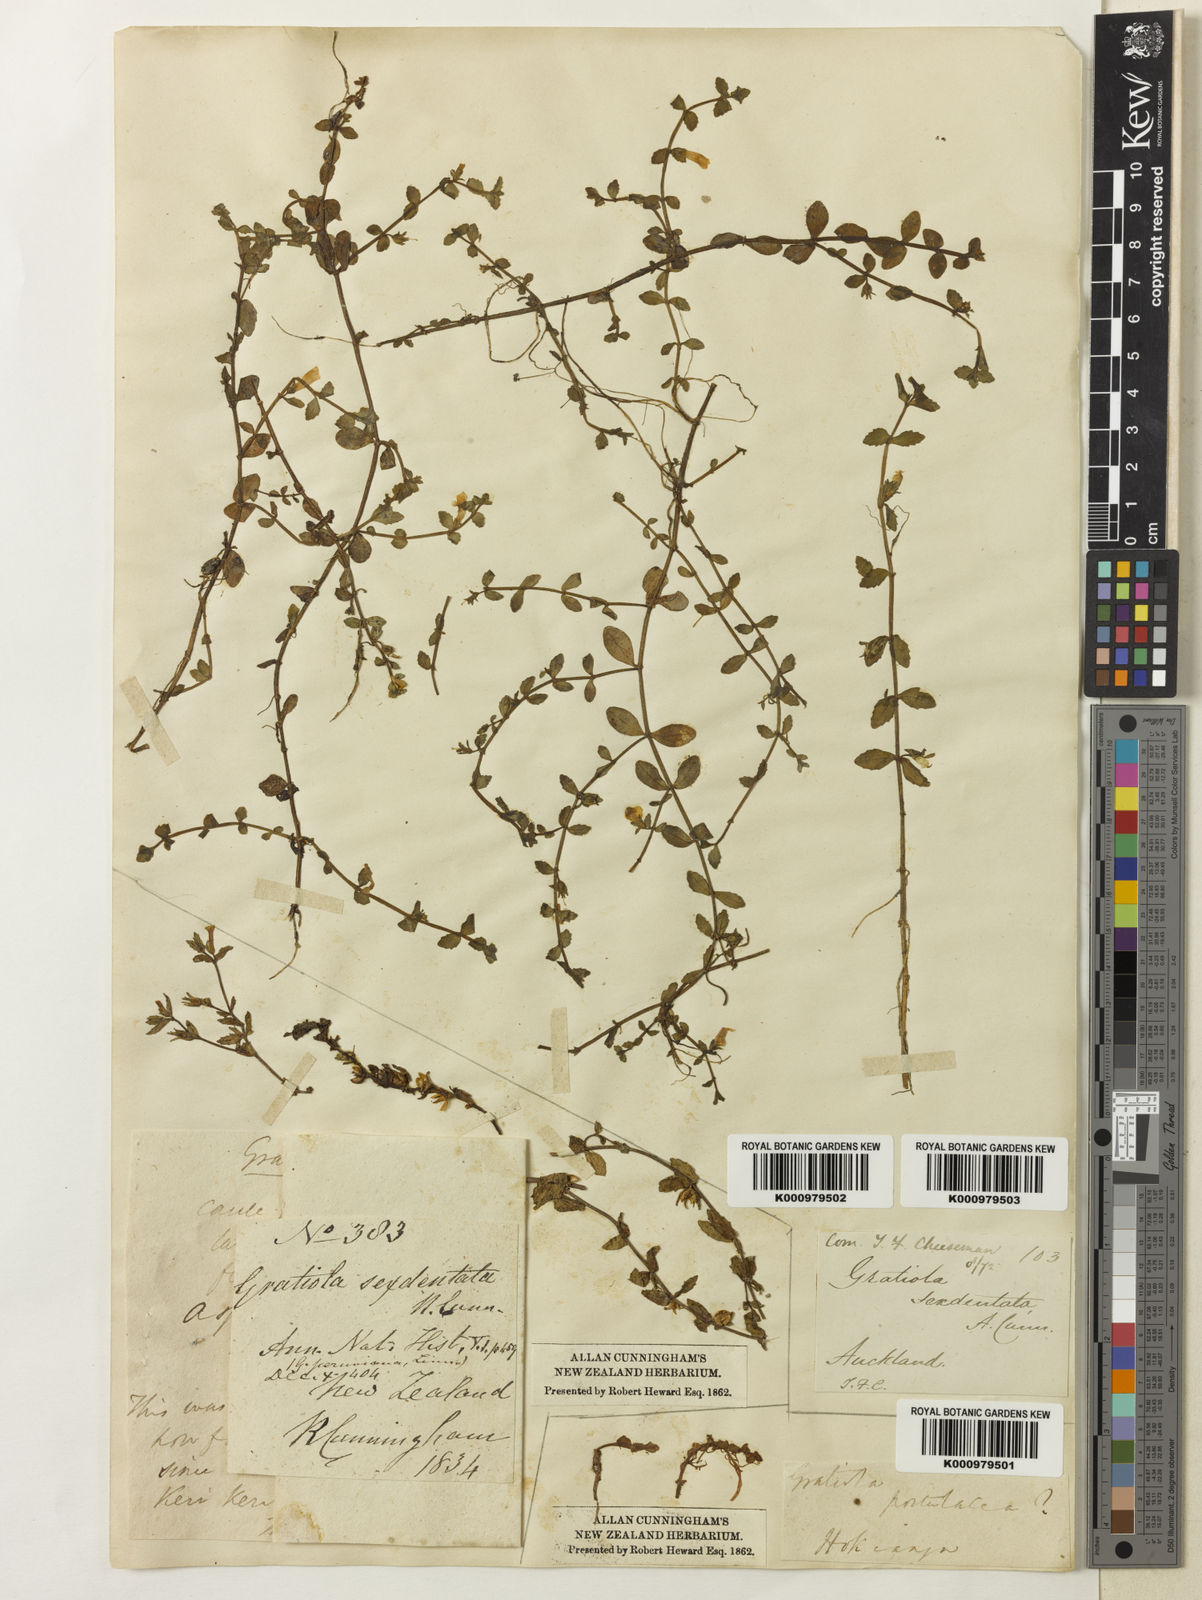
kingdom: Plantae
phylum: Tracheophyta
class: Magnoliopsida
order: Lamiales
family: Plantaginaceae
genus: Gratiola
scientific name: Gratiola peruviana
